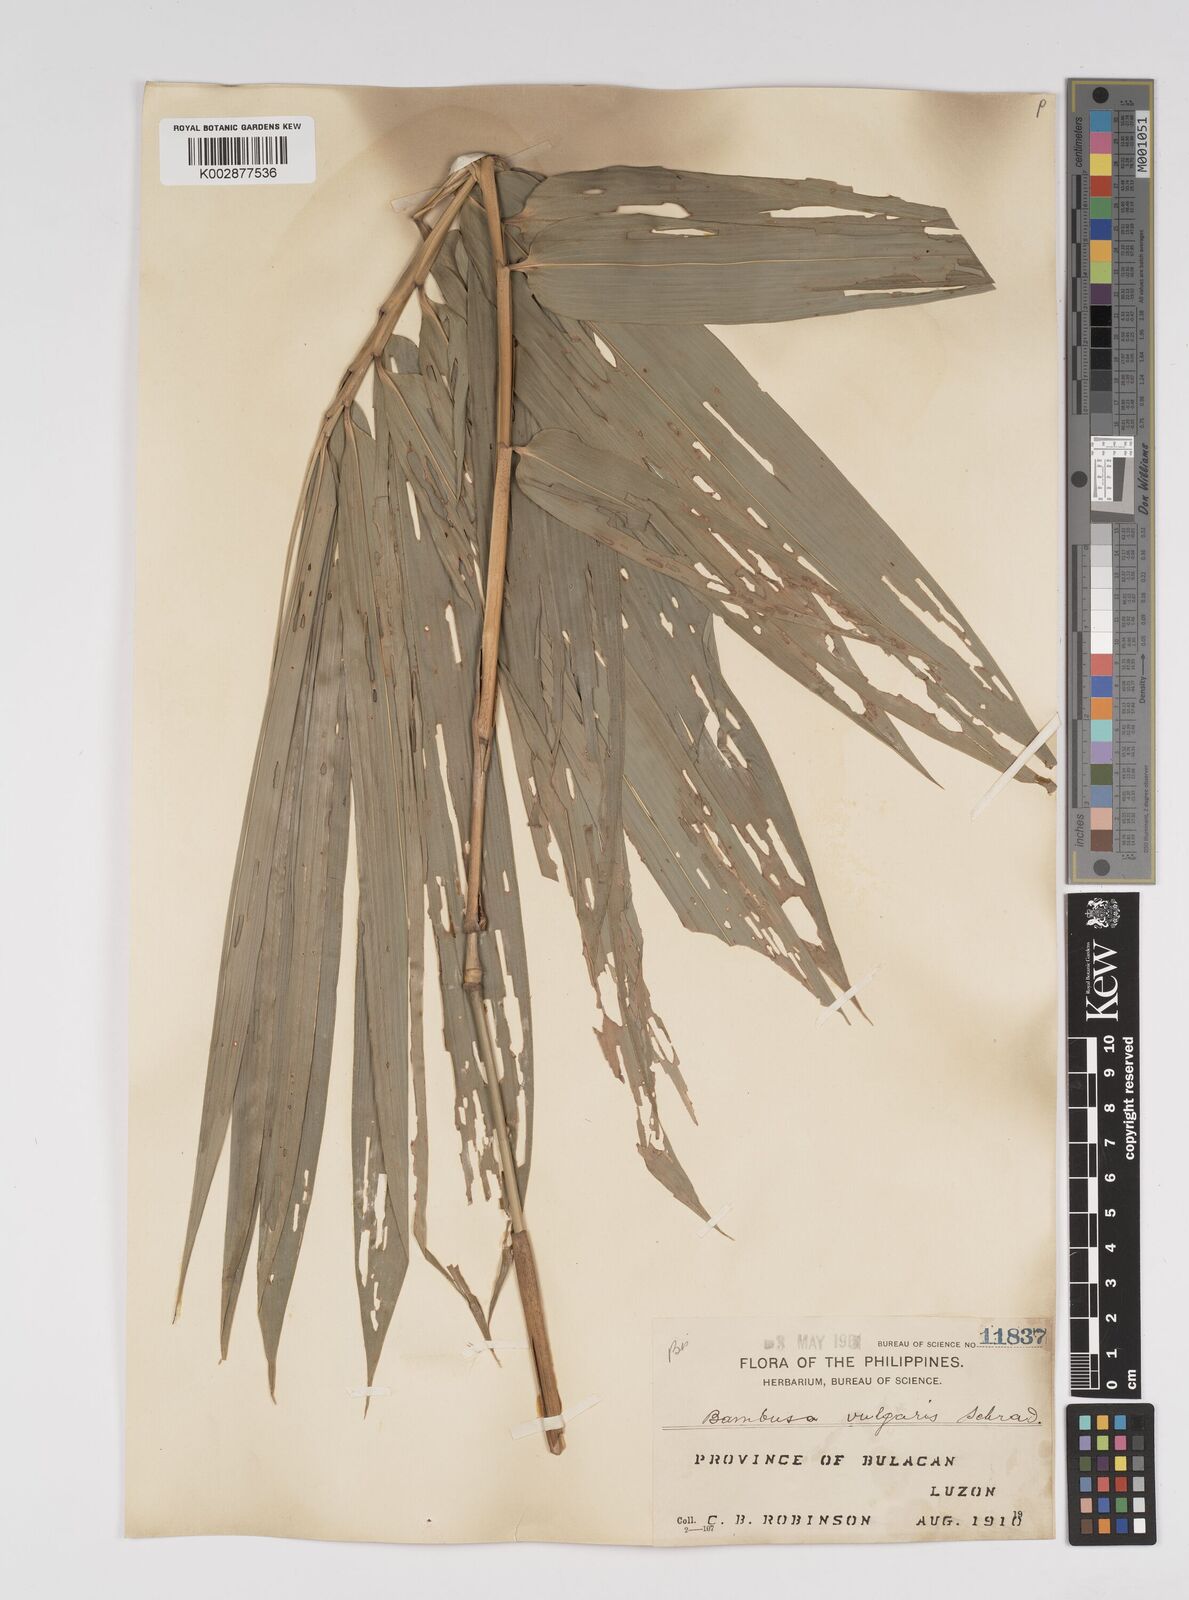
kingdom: Plantae
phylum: Tracheophyta
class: Liliopsida
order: Poales
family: Poaceae
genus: Bambusa
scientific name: Bambusa vulgaris
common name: Common bamboo
